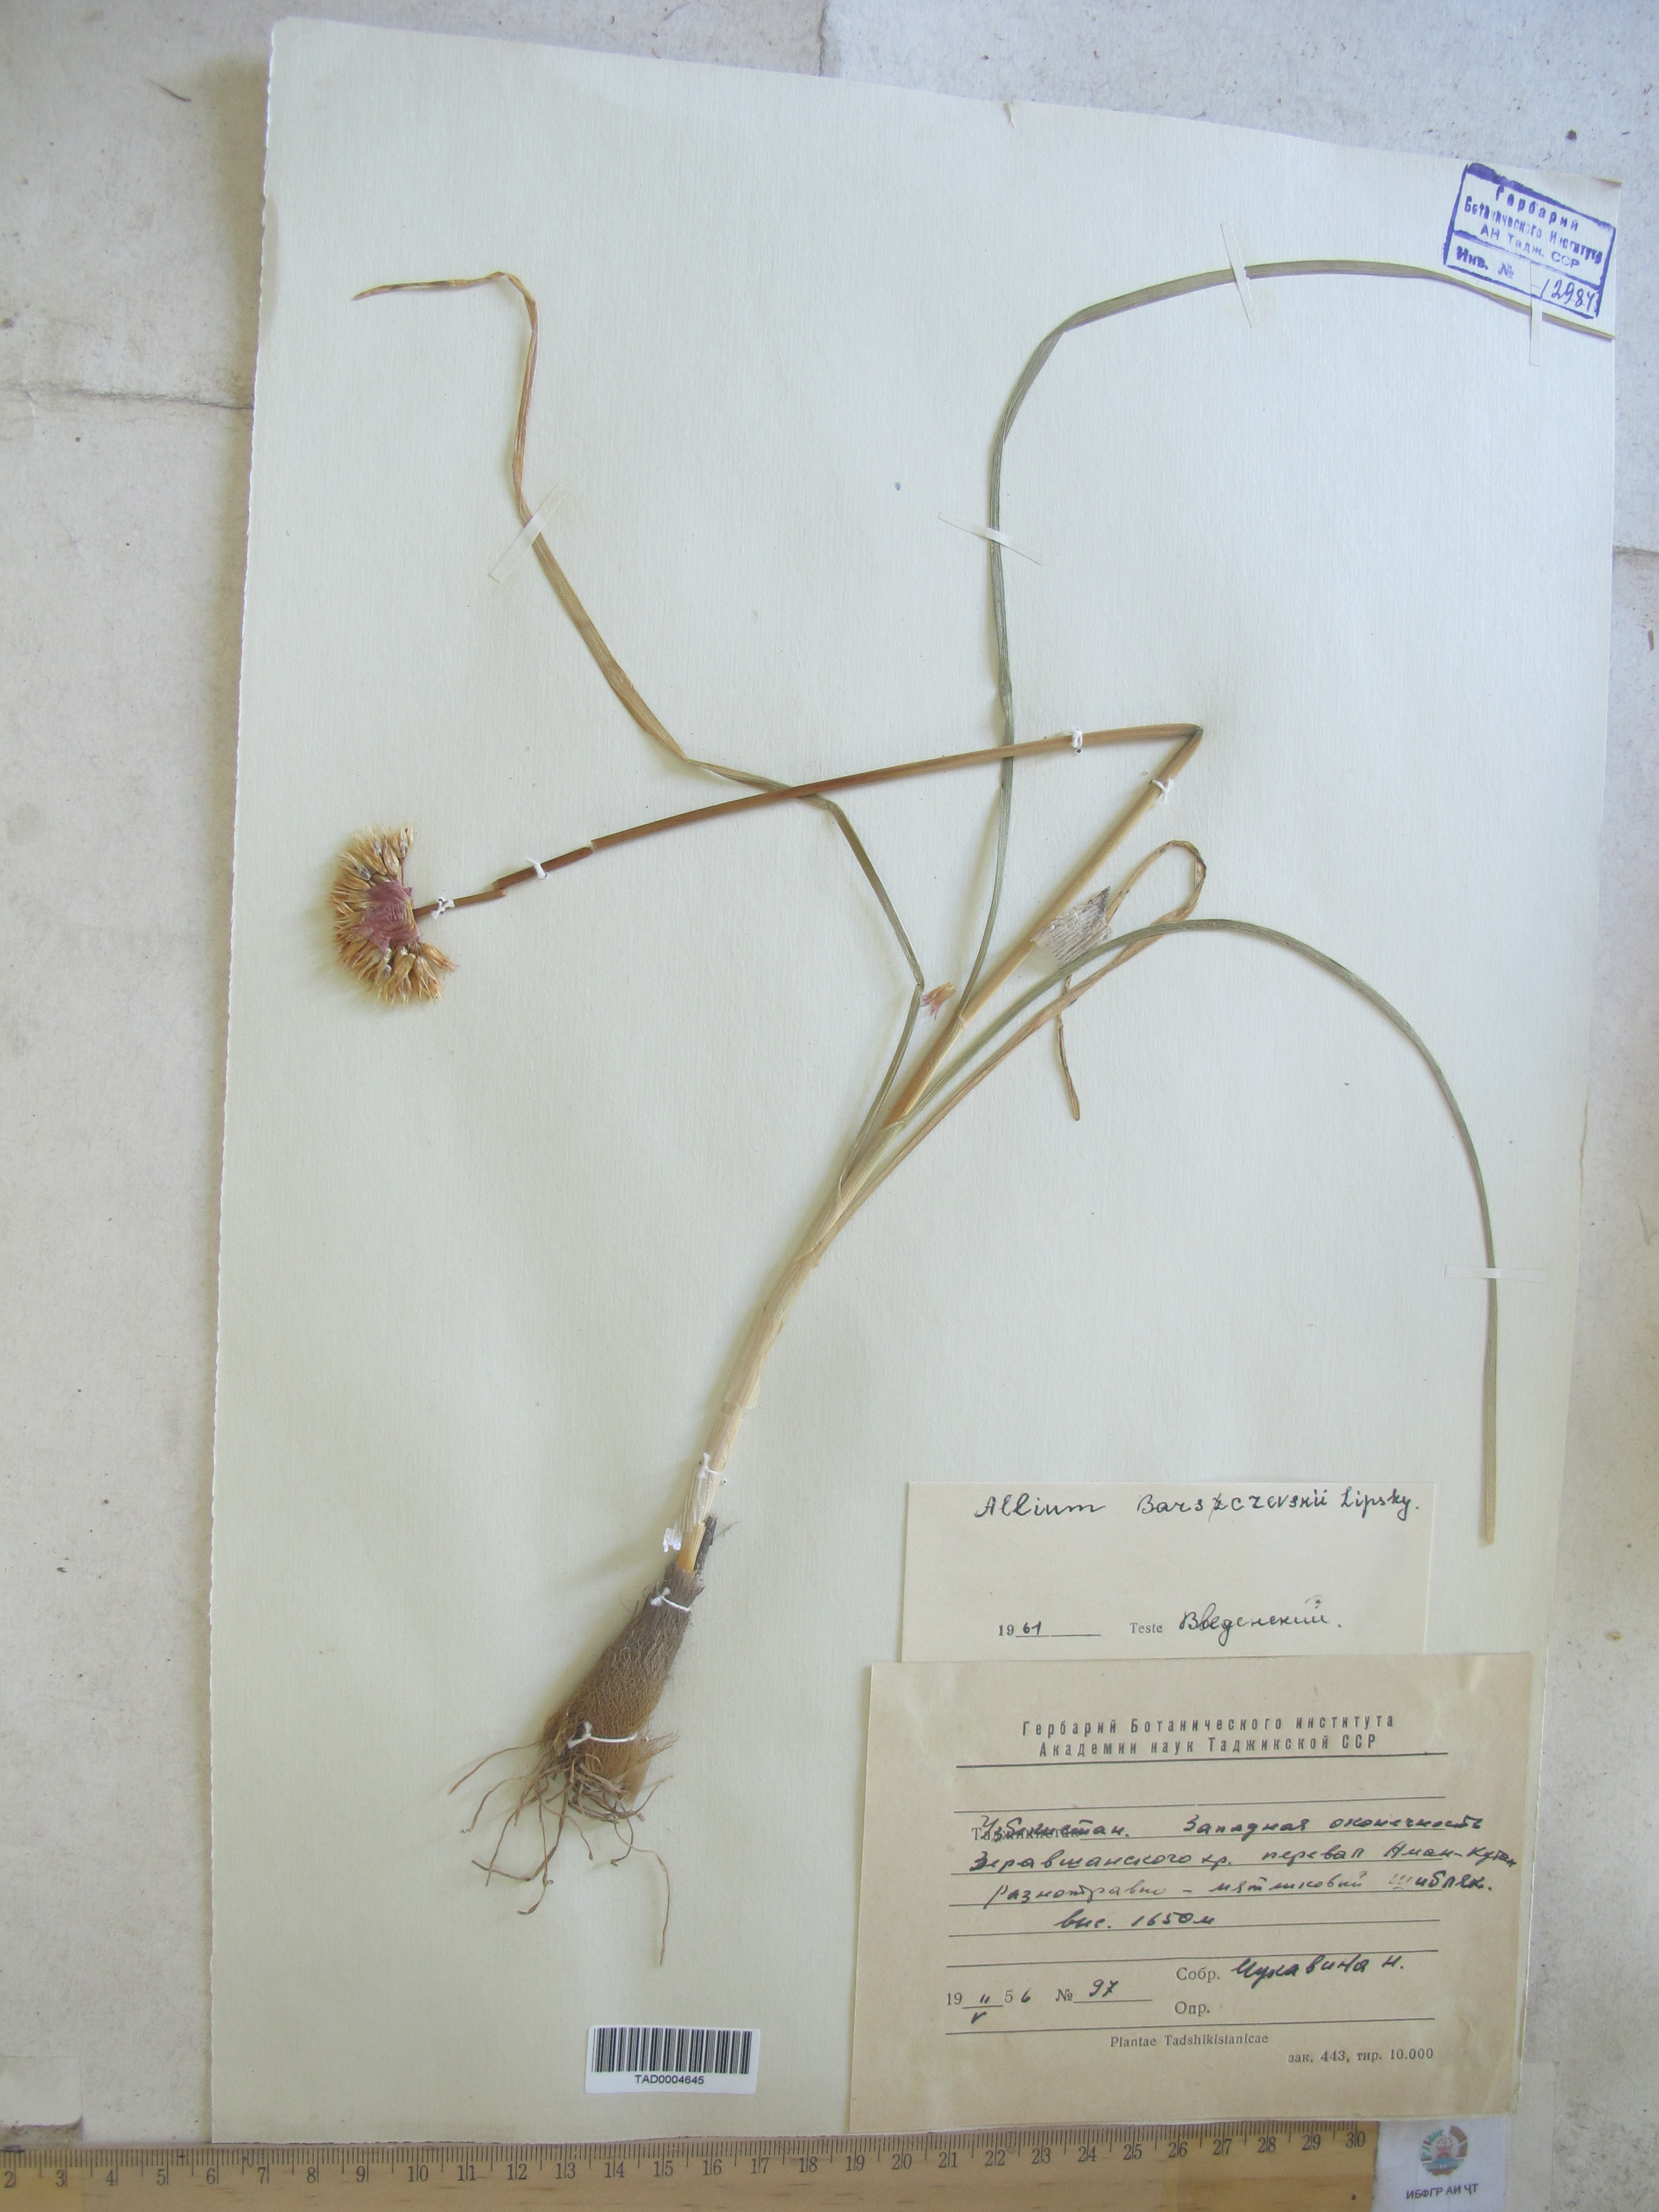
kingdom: Plantae
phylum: Tracheophyta
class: Liliopsida
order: Asparagales
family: Amaryllidaceae
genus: Allium
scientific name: Allium barsczewskii
